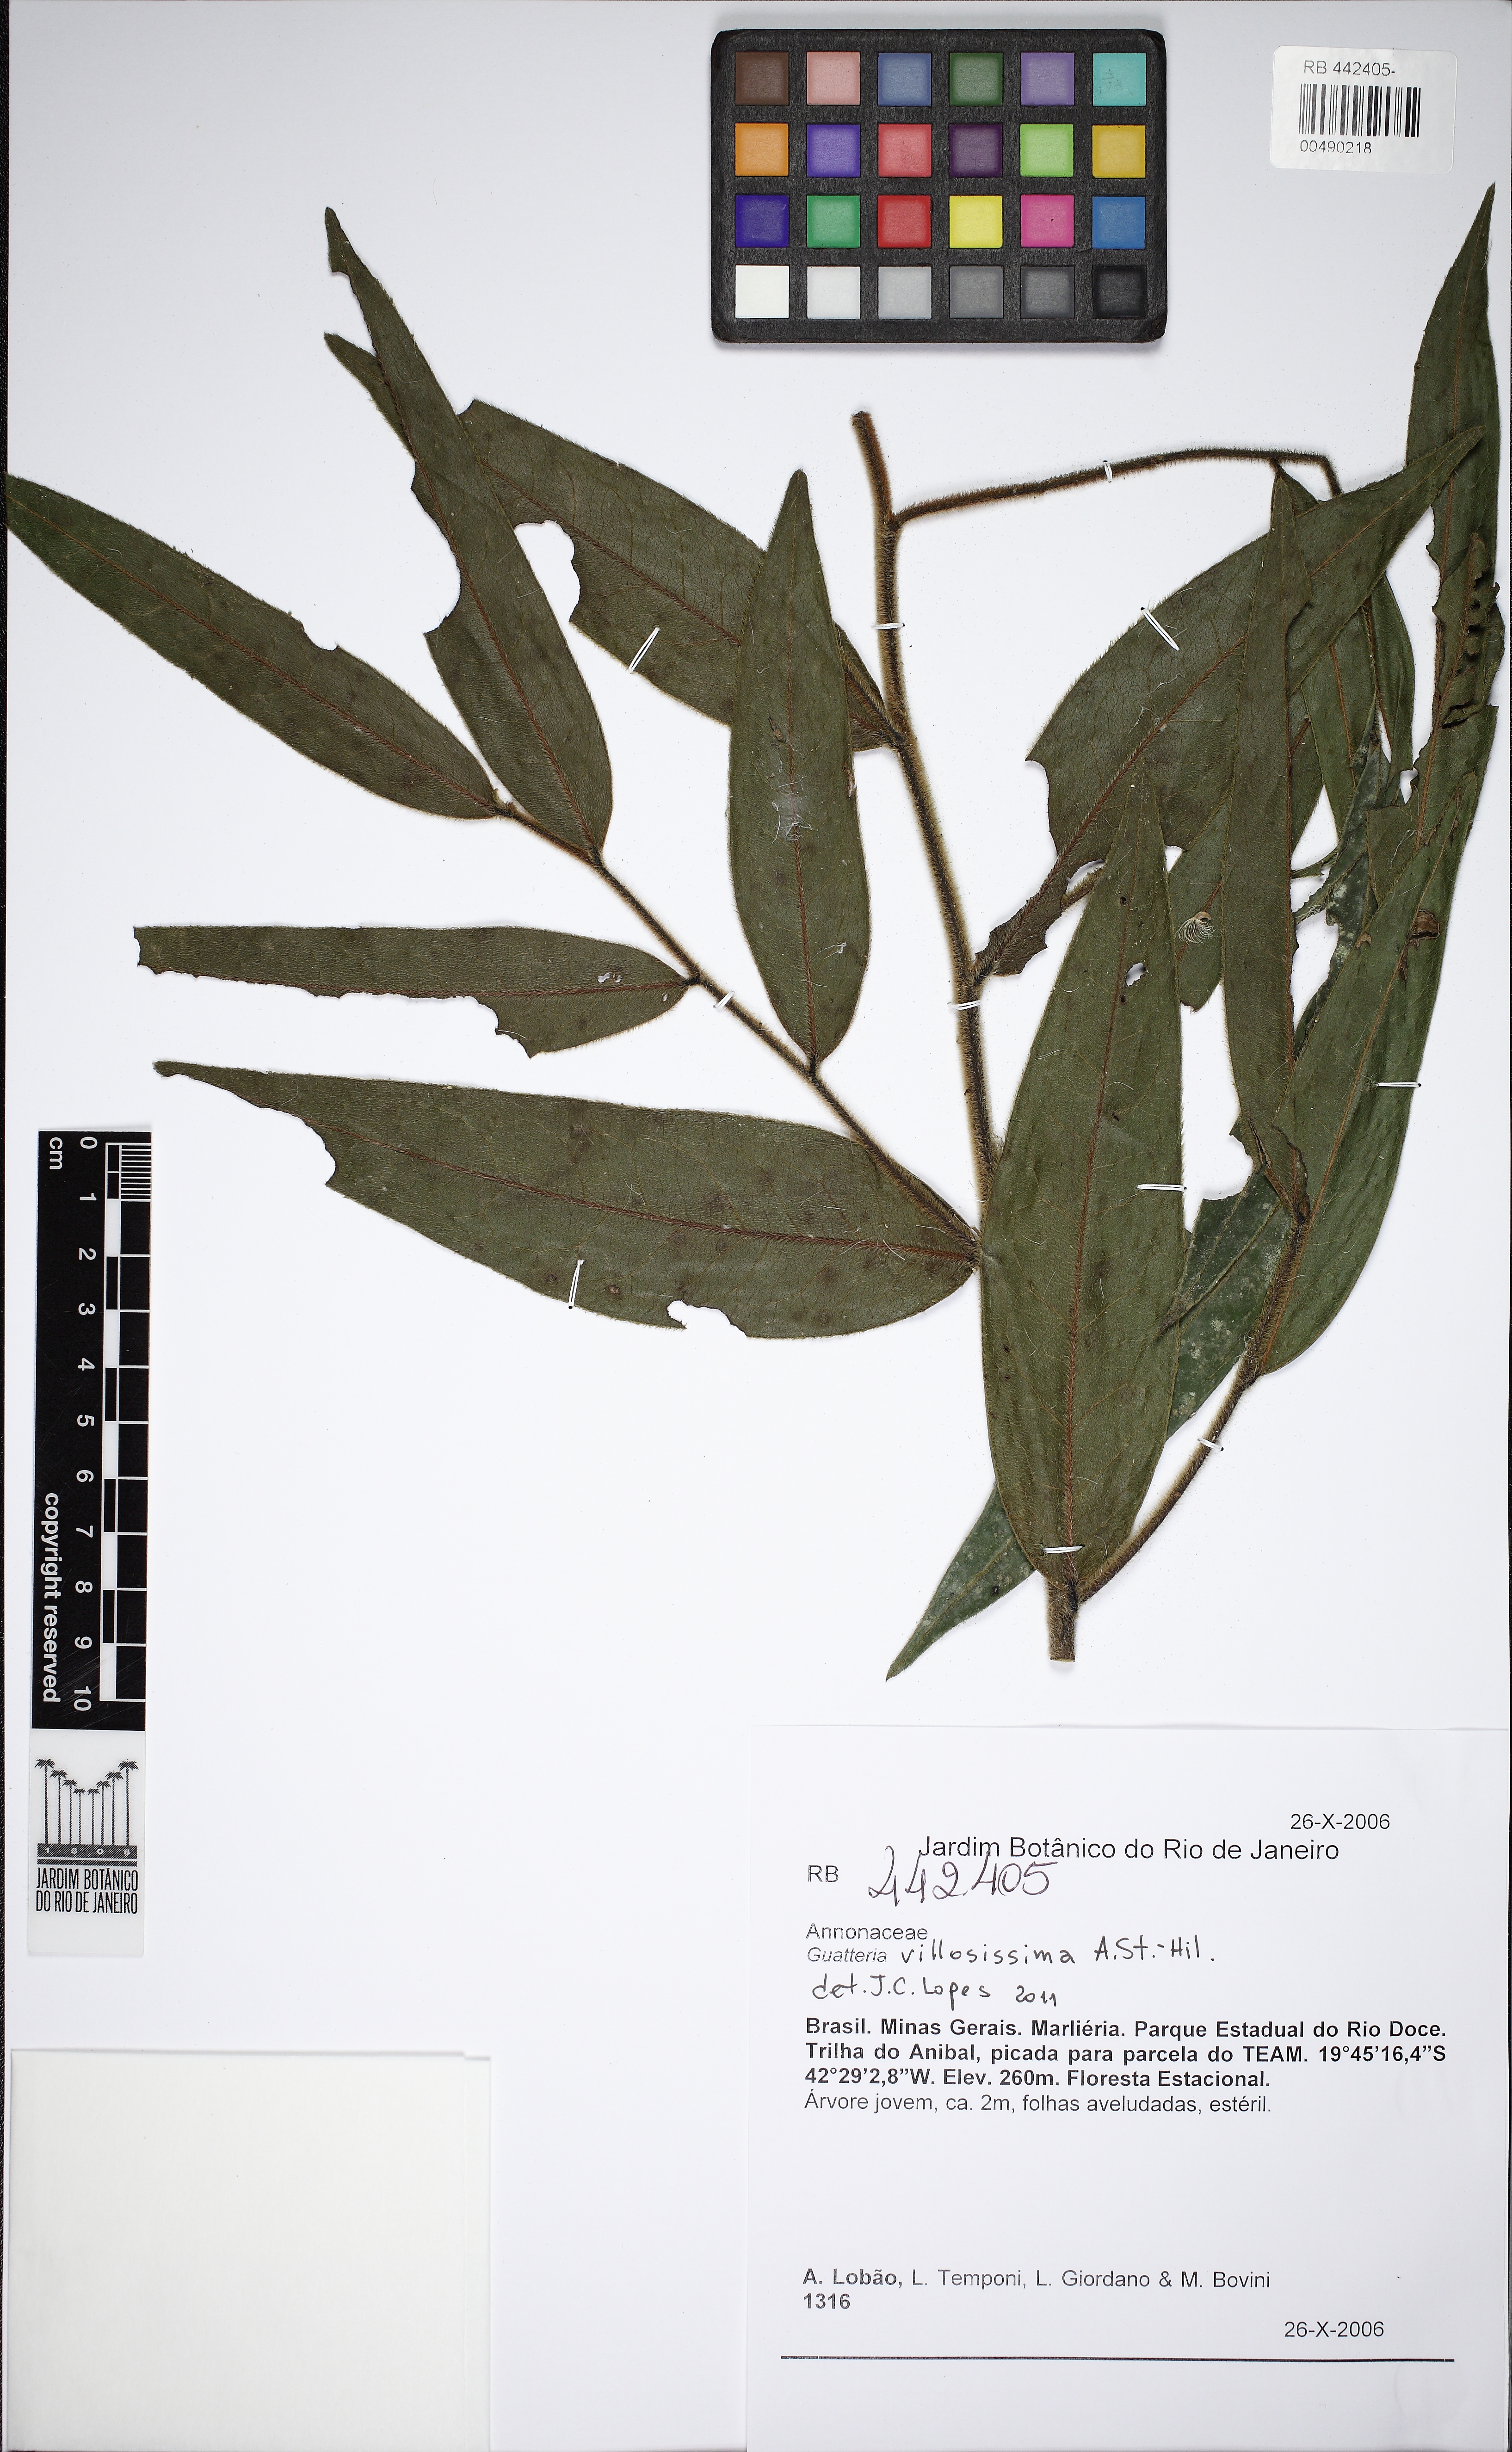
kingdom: Plantae
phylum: Tracheophyta
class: Magnoliopsida
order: Magnoliales
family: Annonaceae
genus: Guatteria
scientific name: Guatteria villosissima
